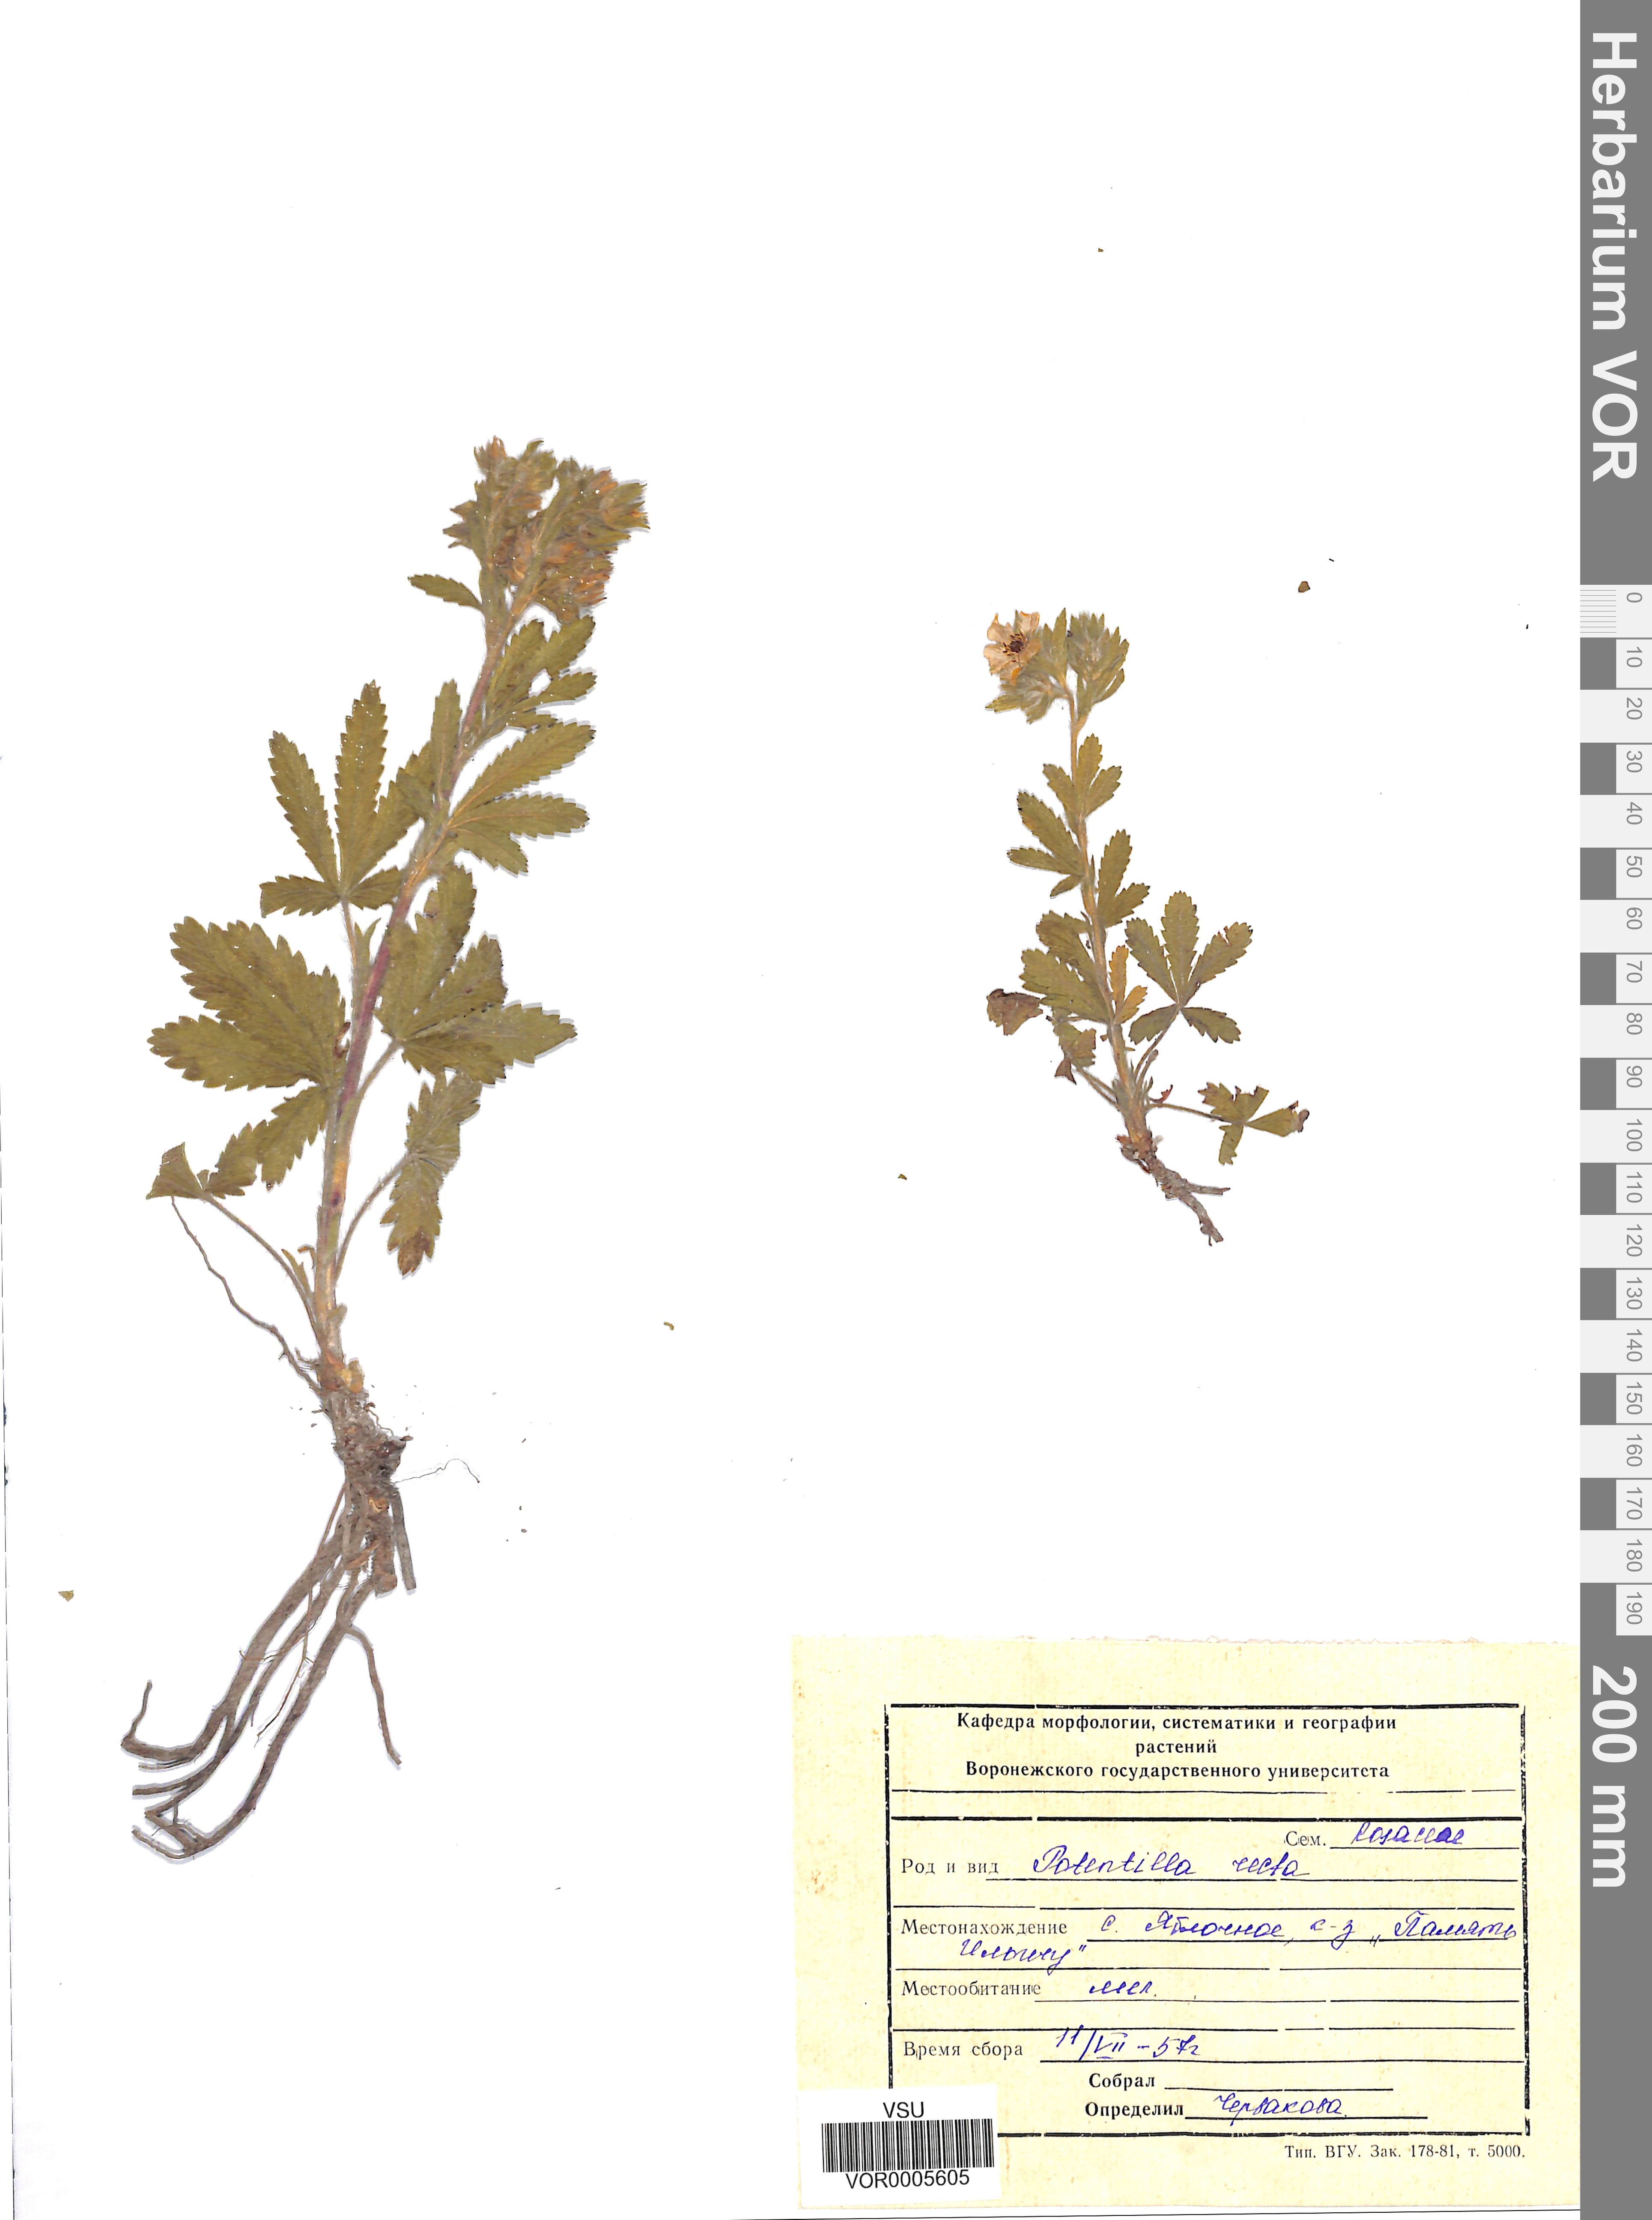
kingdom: Plantae
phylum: Tracheophyta
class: Magnoliopsida
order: Rosales
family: Rosaceae
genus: Potentilla
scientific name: Potentilla recta
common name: Sulphur cinquefoil
